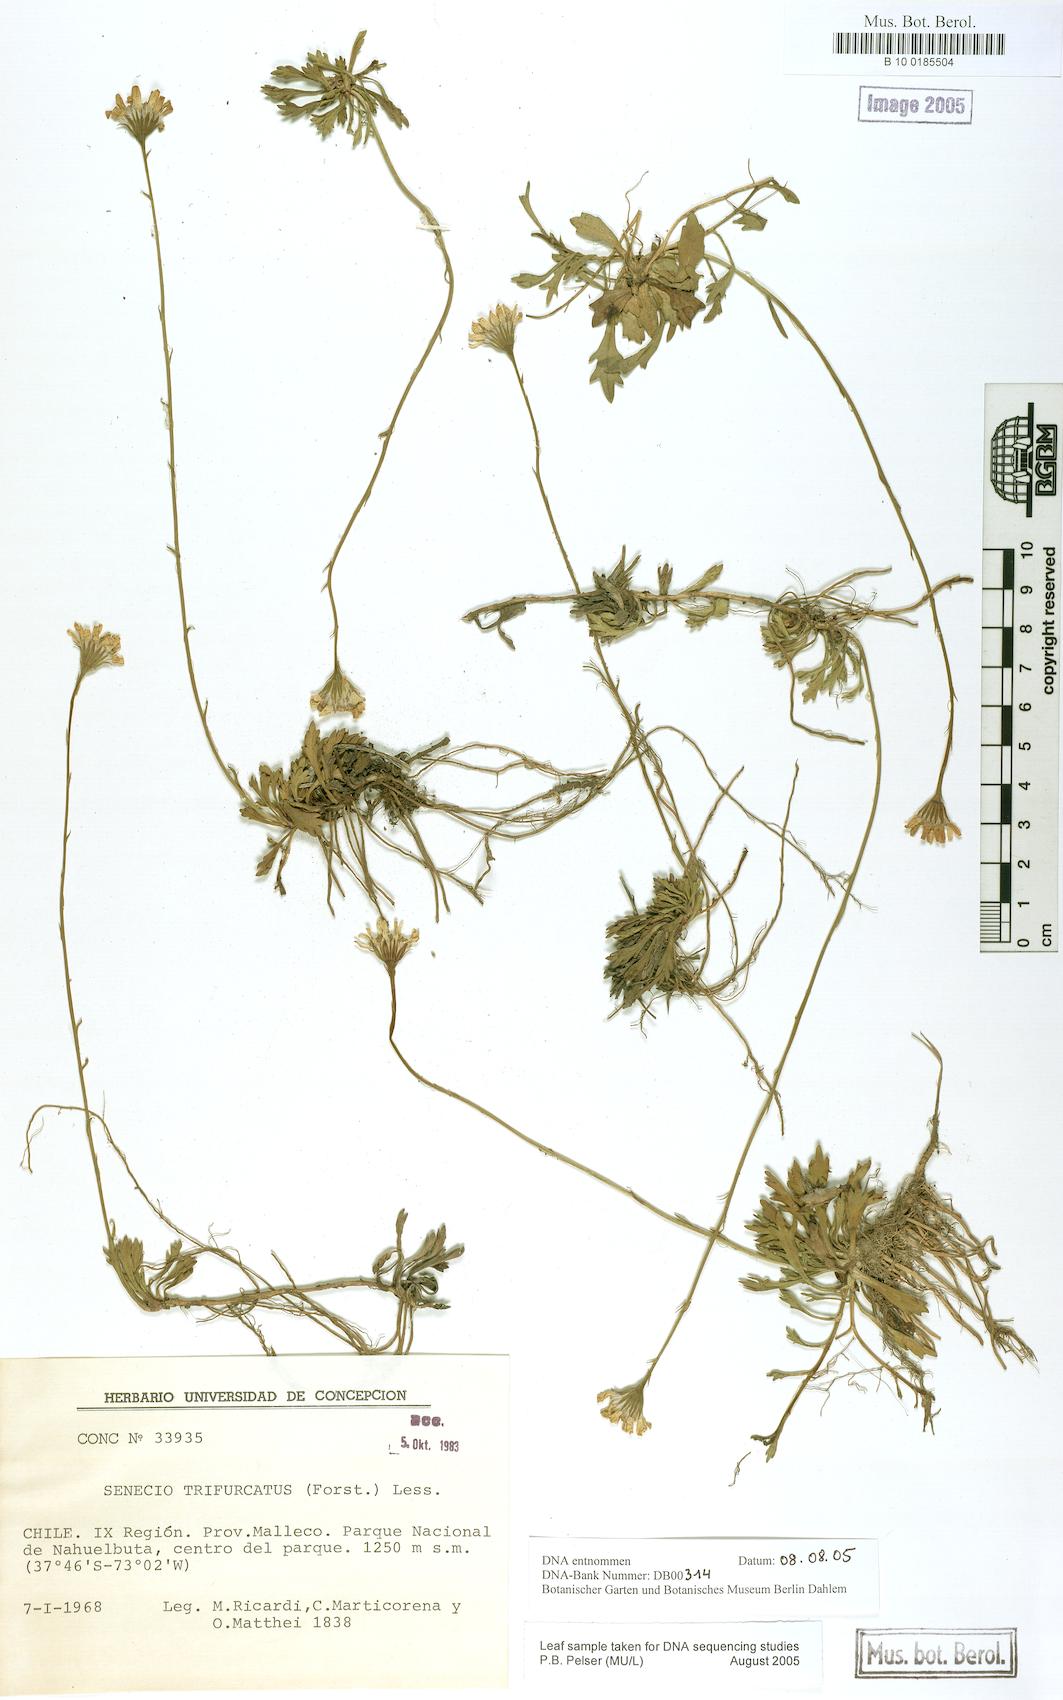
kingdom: Plantae
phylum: Tracheophyta
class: Magnoliopsida
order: Asterales
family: Asteraceae
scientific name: Asteraceae
